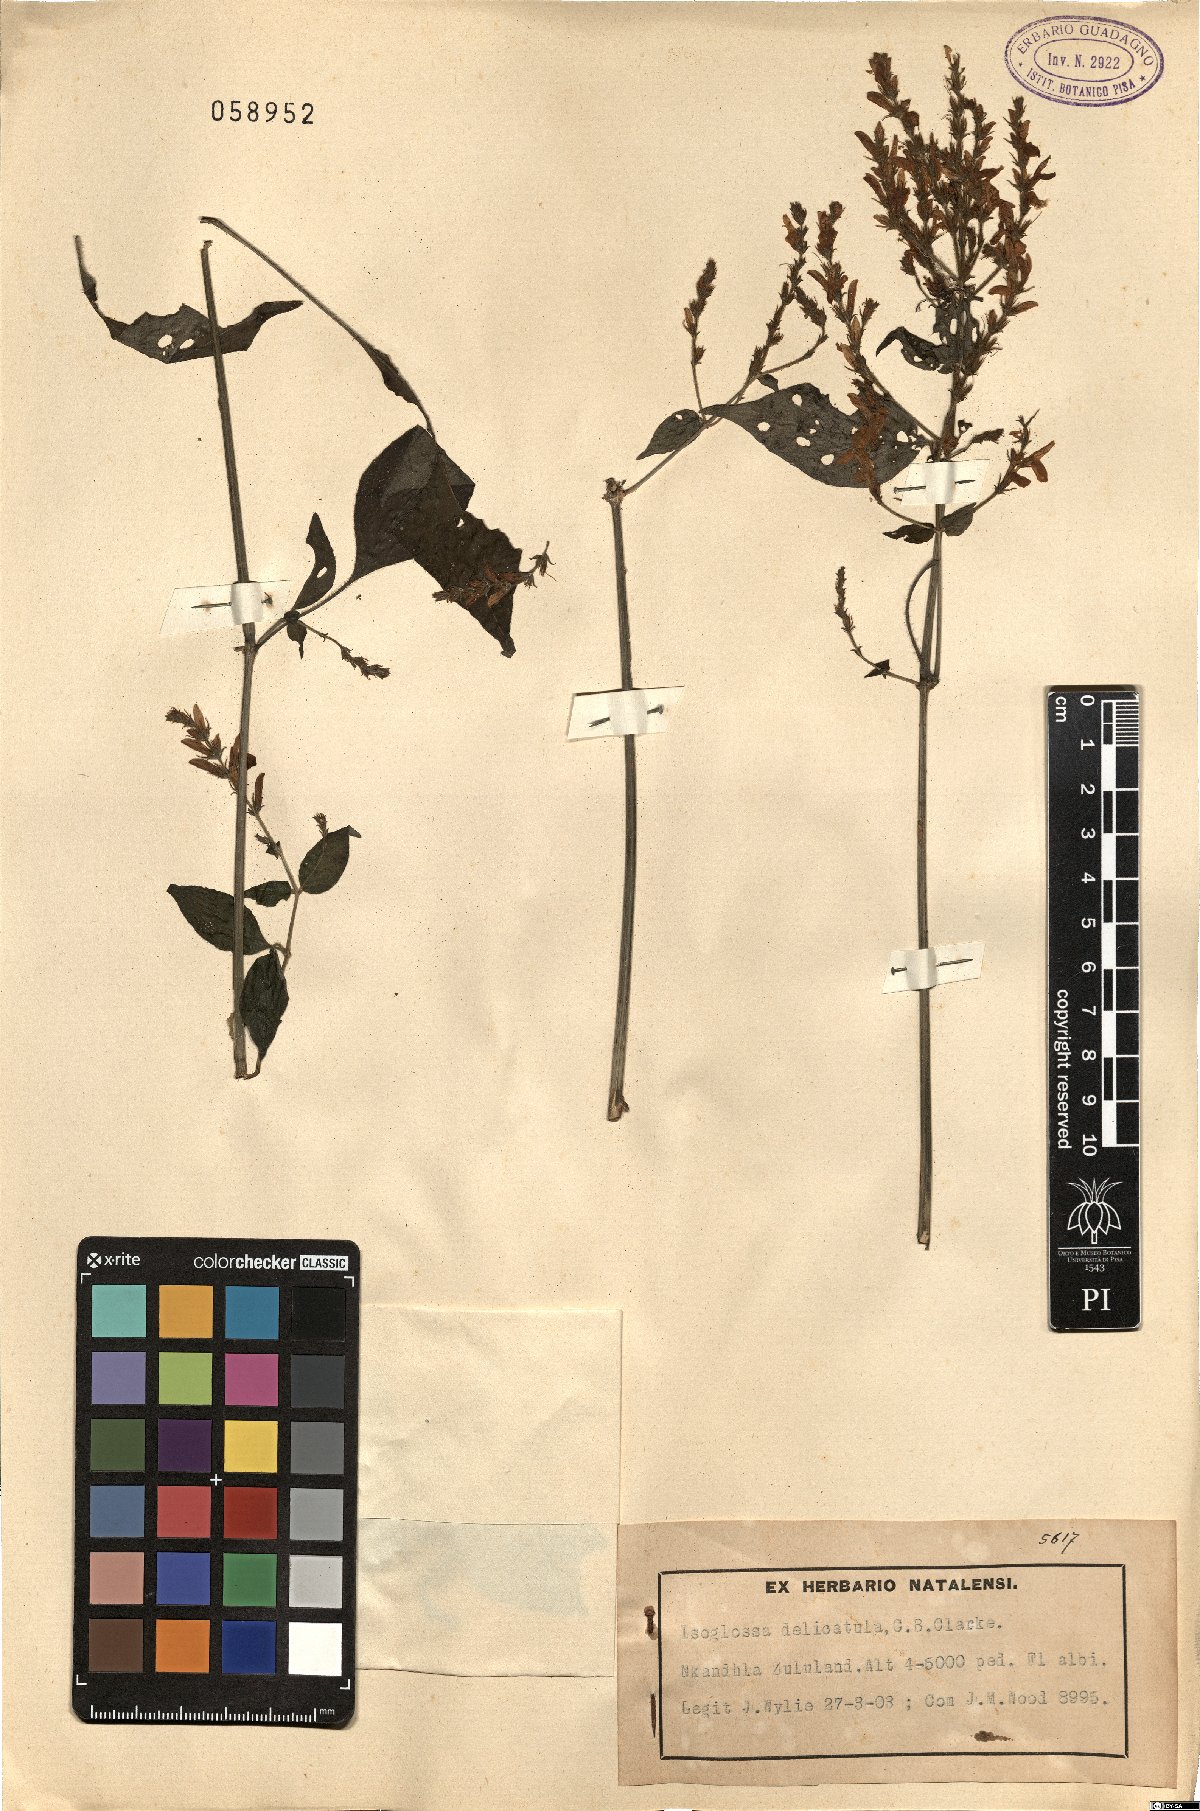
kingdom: Plantae
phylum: Tracheophyta
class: Magnoliopsida
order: Lamiales
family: Acanthaceae
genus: Isoglossa
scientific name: Isoglossa delicatula
